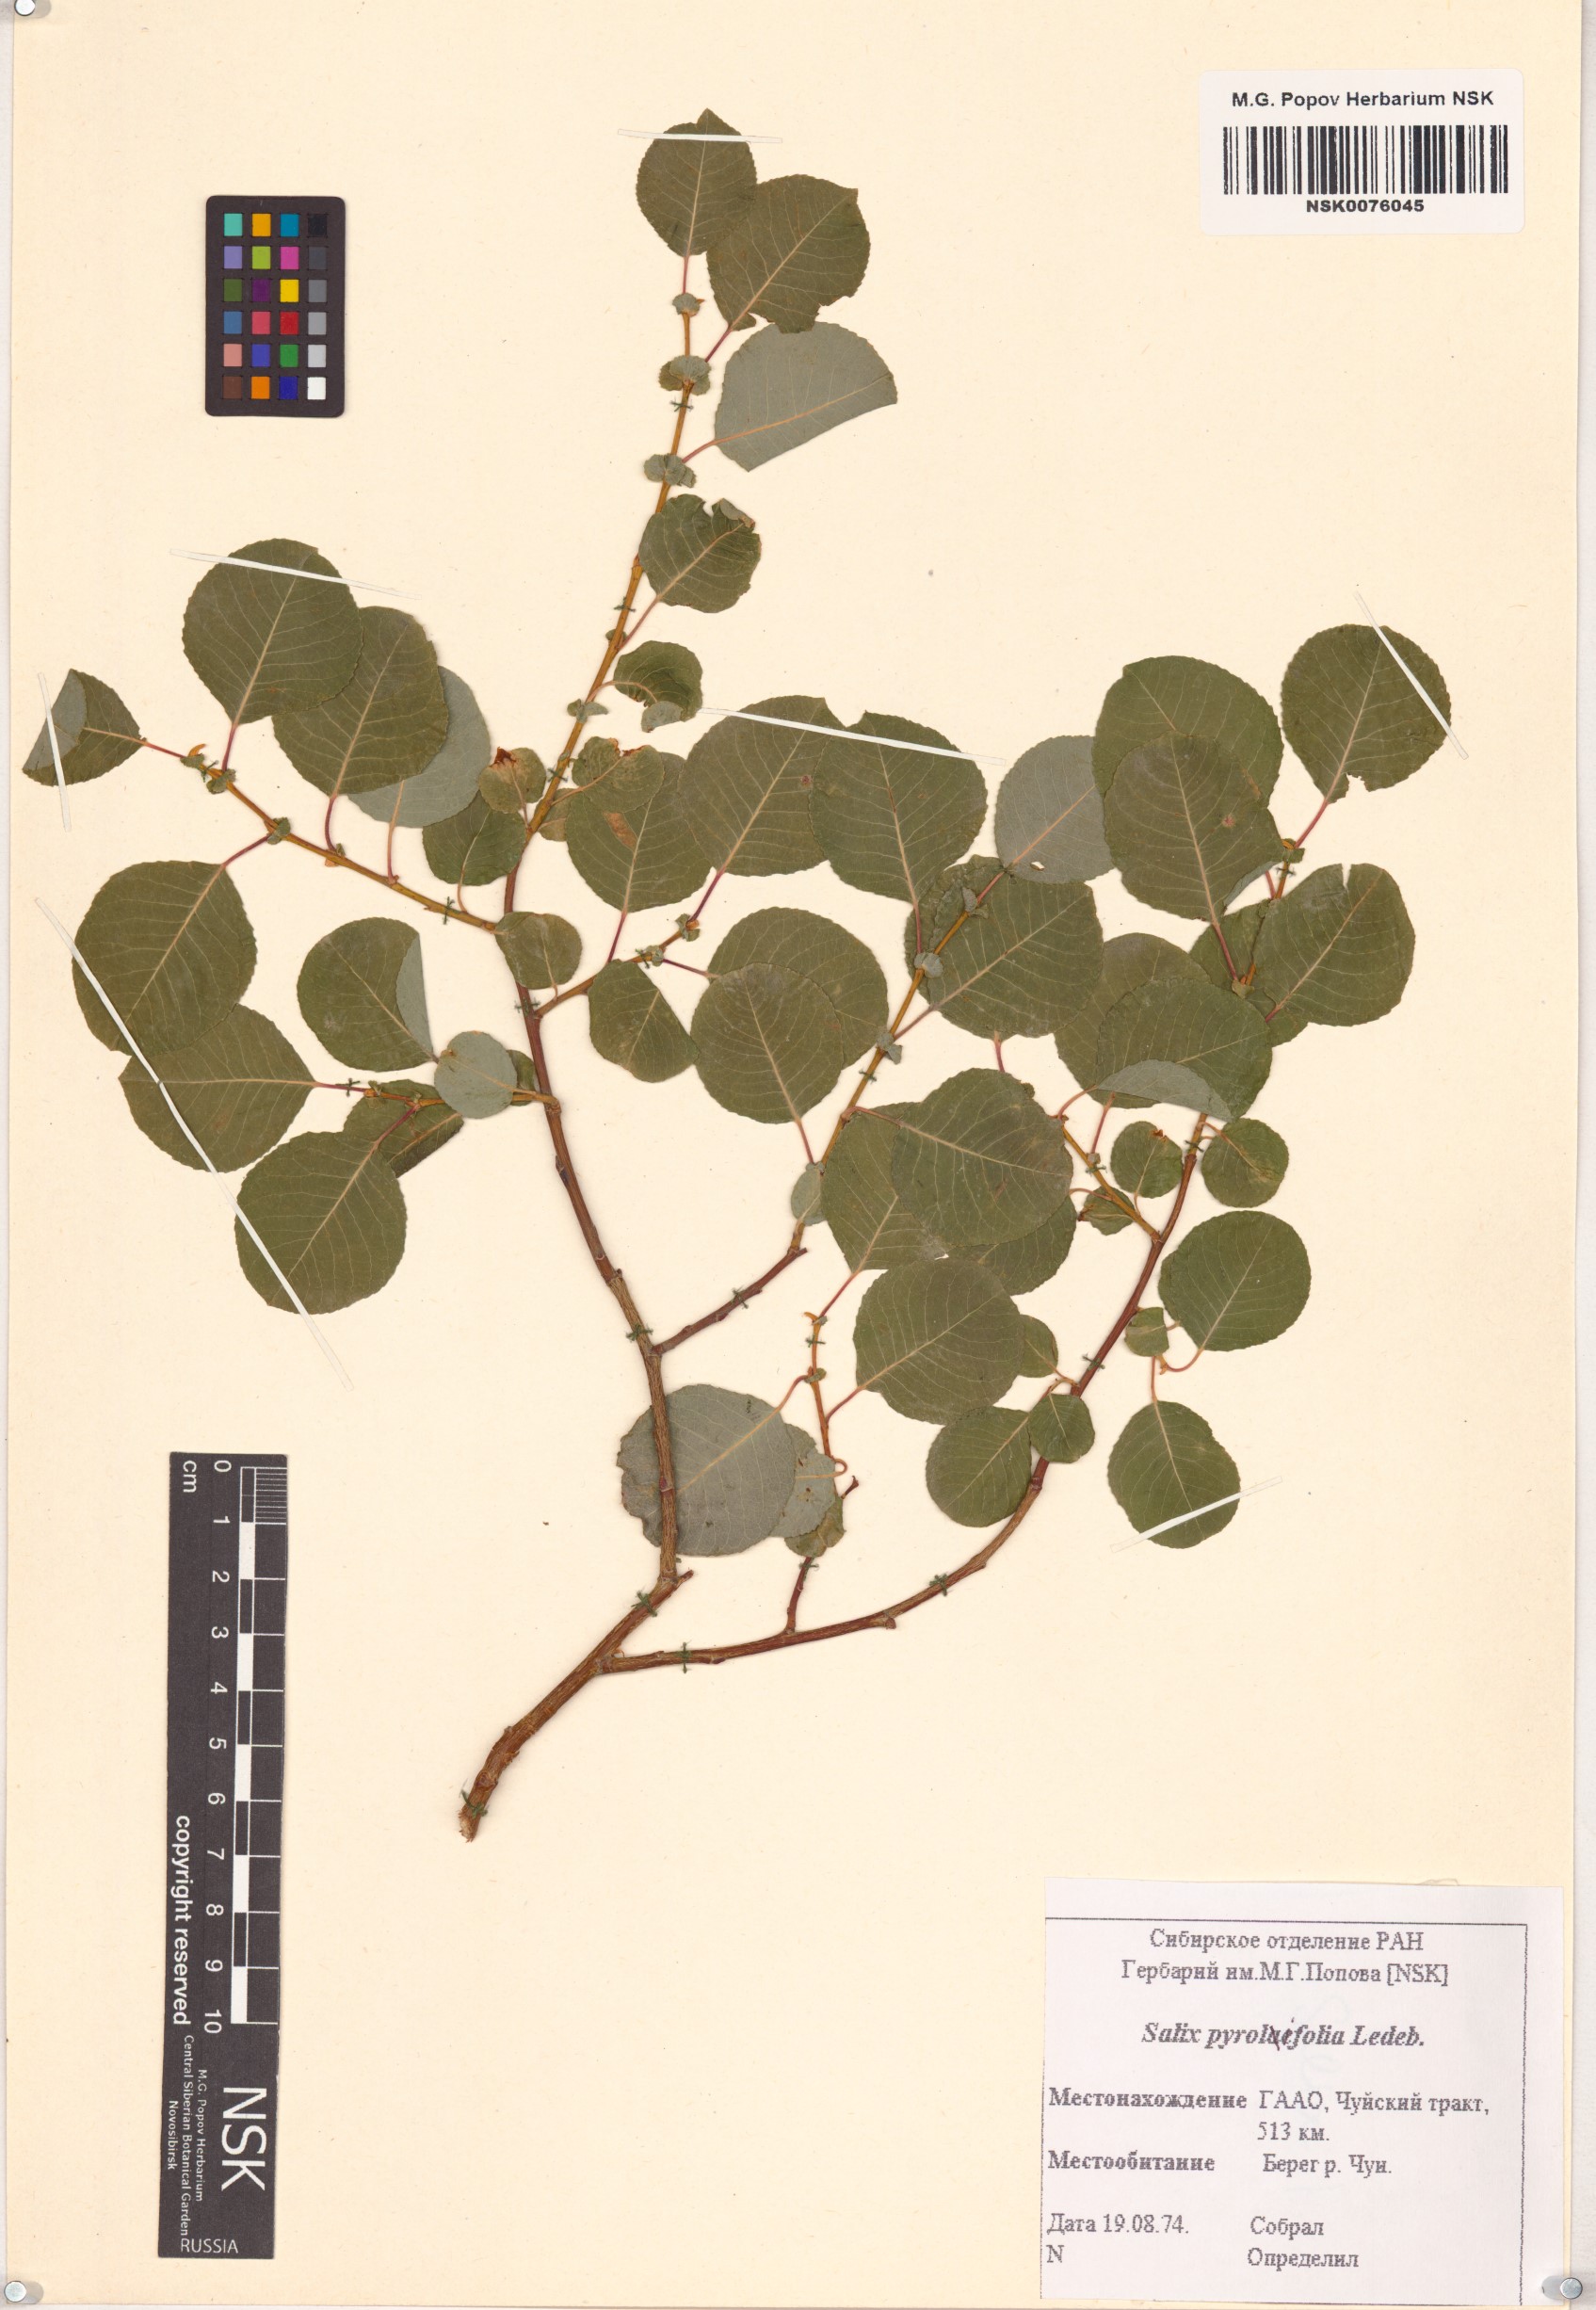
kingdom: Plantae
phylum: Tracheophyta
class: Magnoliopsida
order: Malpighiales
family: Salicaceae
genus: Salix
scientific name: Salix pyrolifolia
